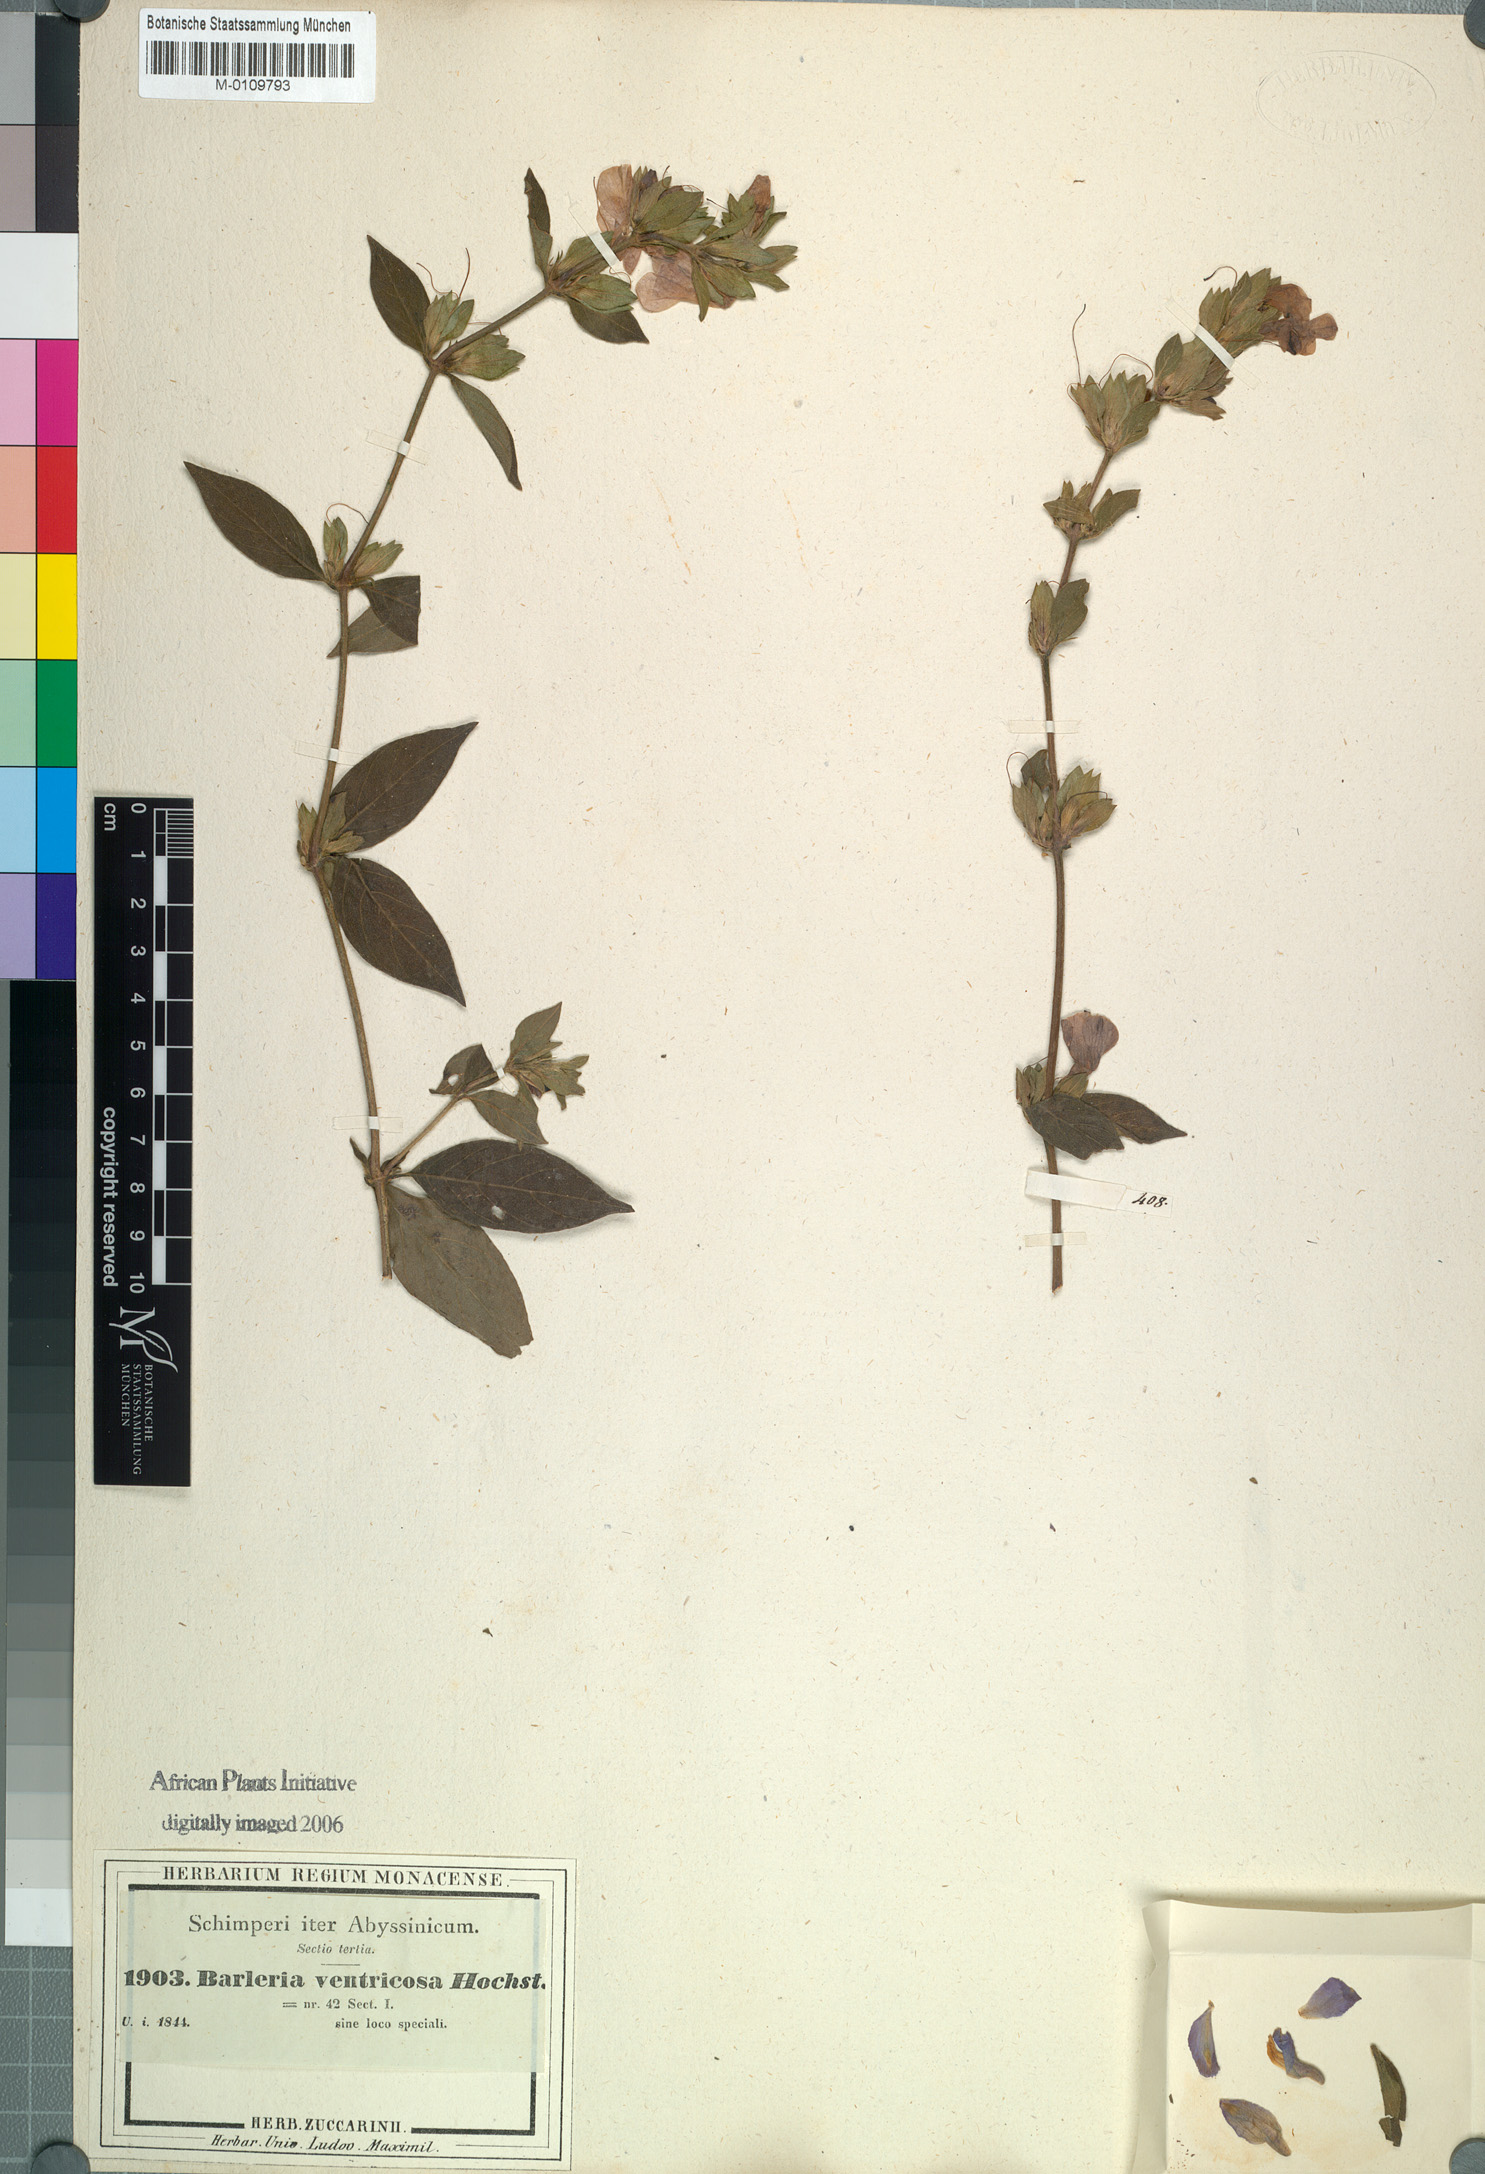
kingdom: Plantae
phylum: Tracheophyta
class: Magnoliopsida
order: Lamiales
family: Acanthaceae
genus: Barleria
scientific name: Barleria ventricosa
